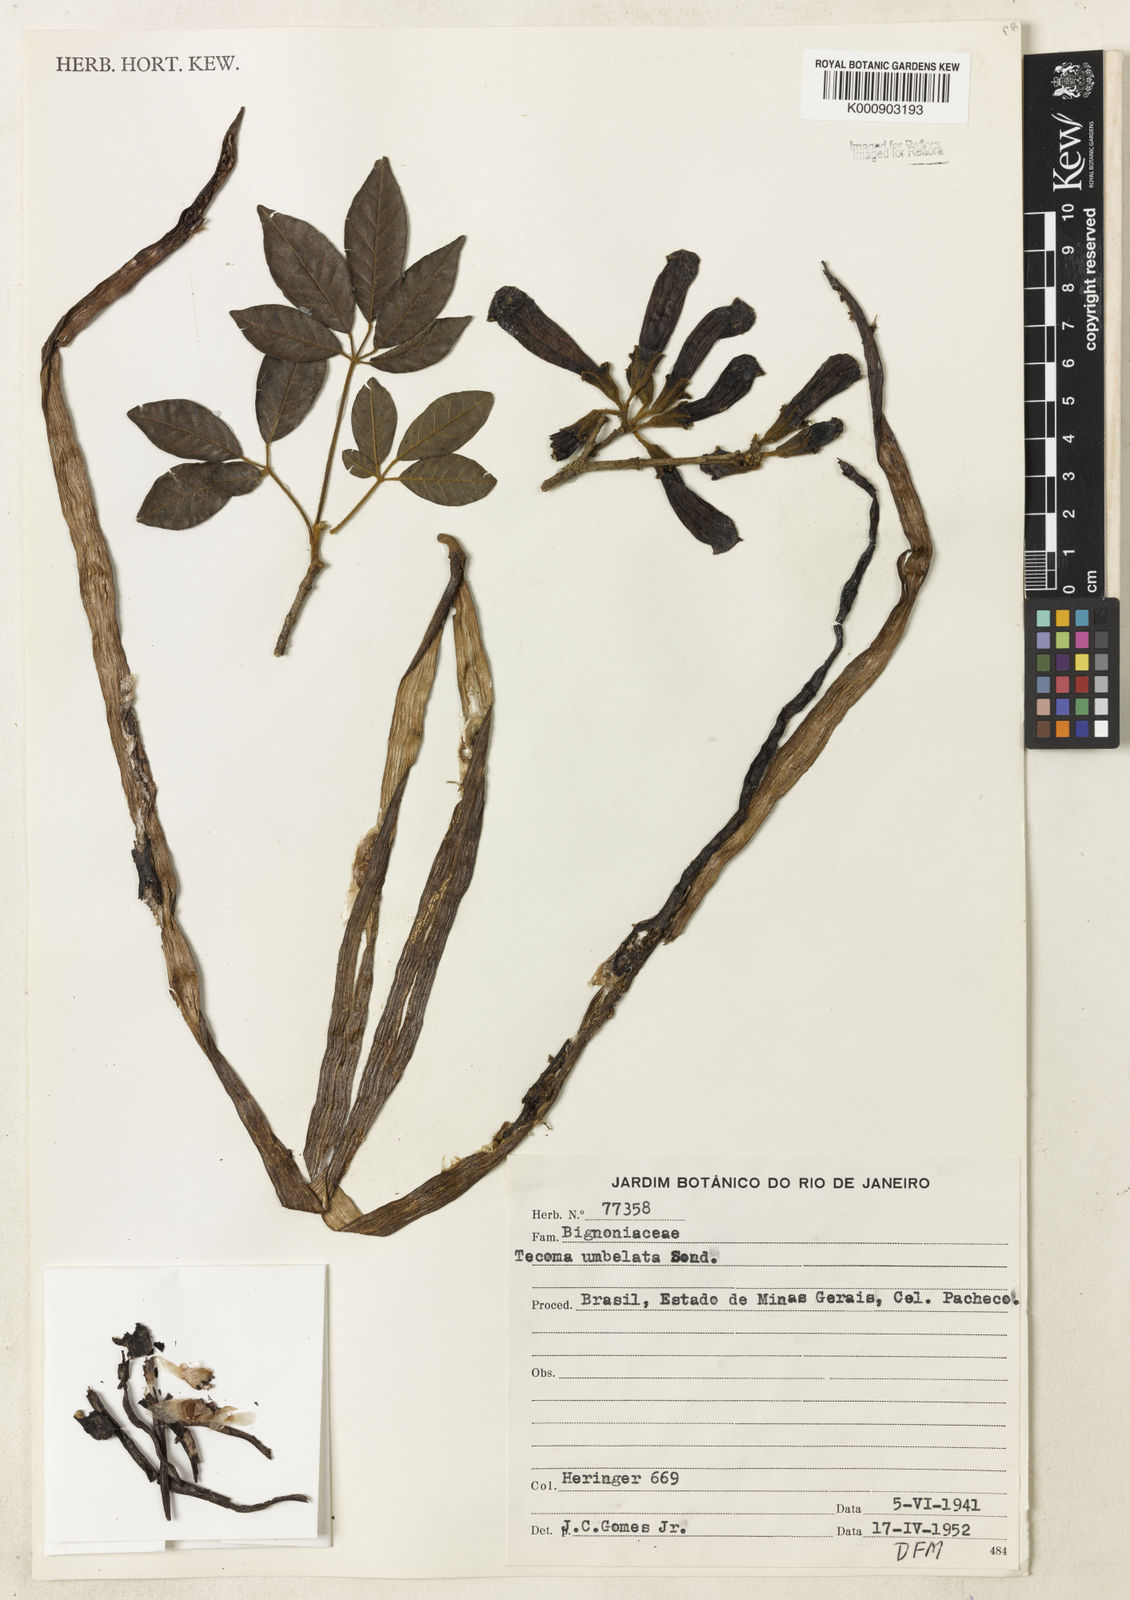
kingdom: Plantae
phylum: Tracheophyta
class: Magnoliopsida
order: Lamiales
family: Bignoniaceae
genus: Handroanthus
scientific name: Handroanthus umbellatus
